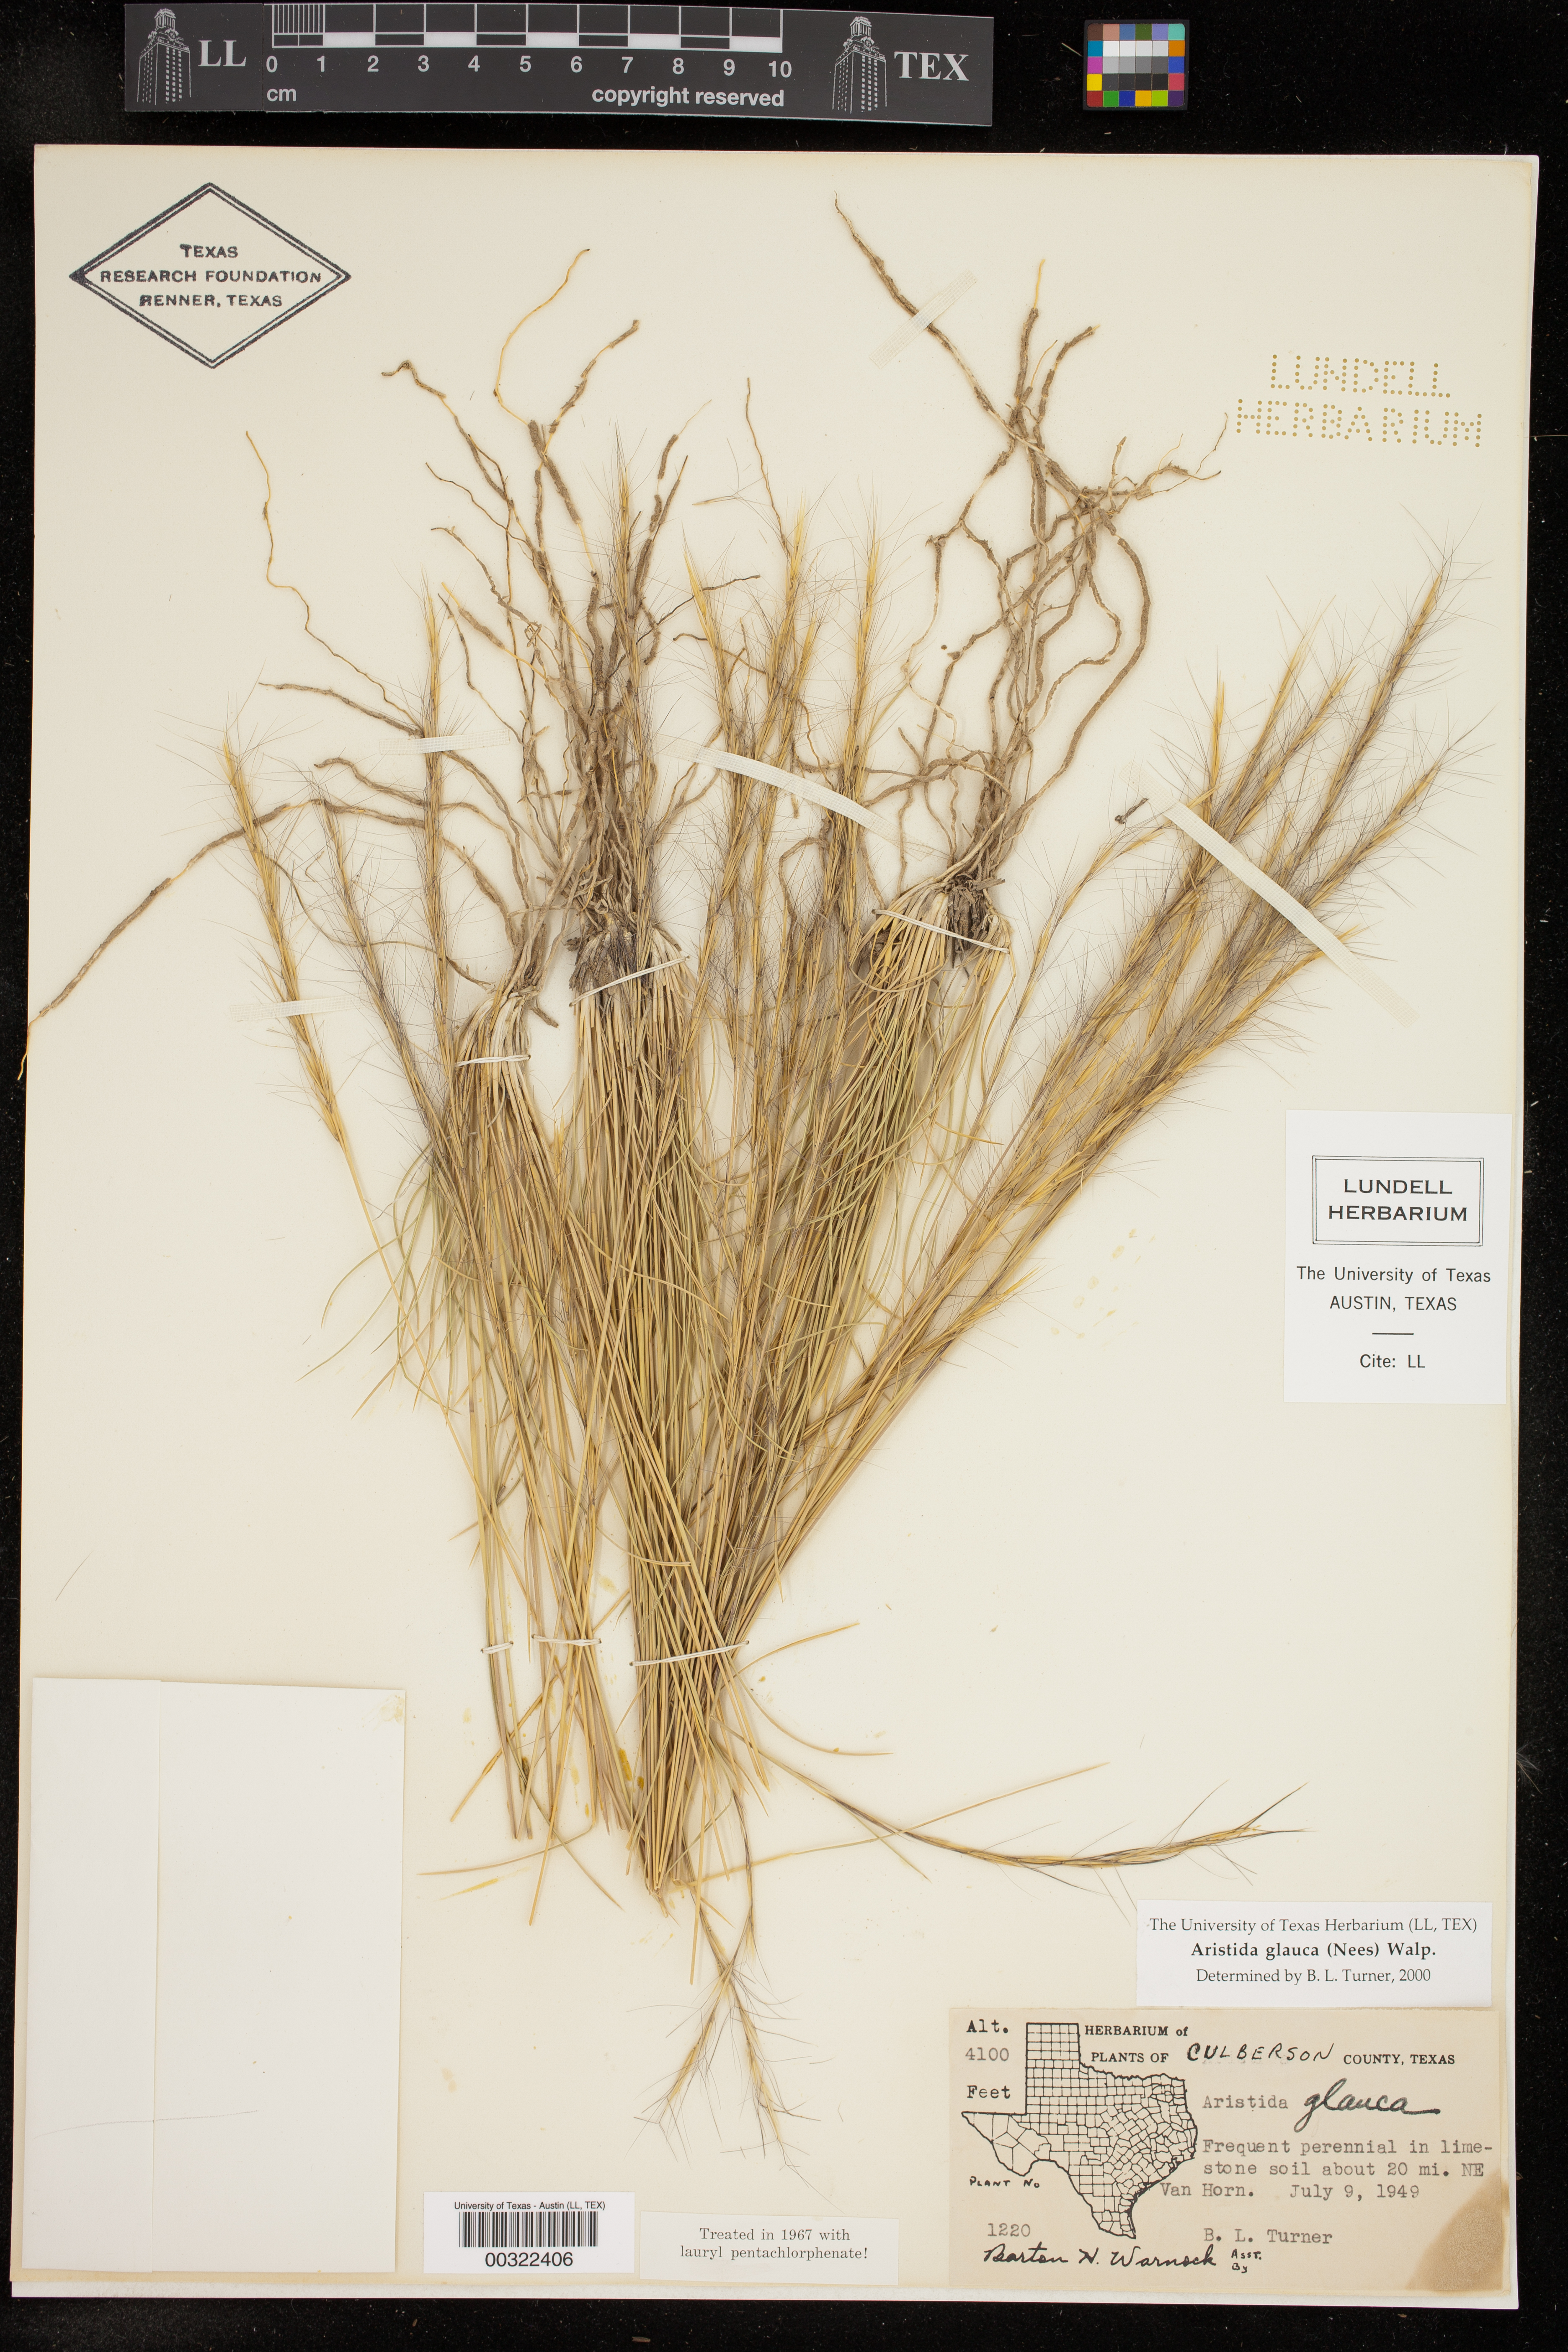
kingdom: Plantae
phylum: Tracheophyta
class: Liliopsida
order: Poales
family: Poaceae
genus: Aristida
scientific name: Aristida glauca
